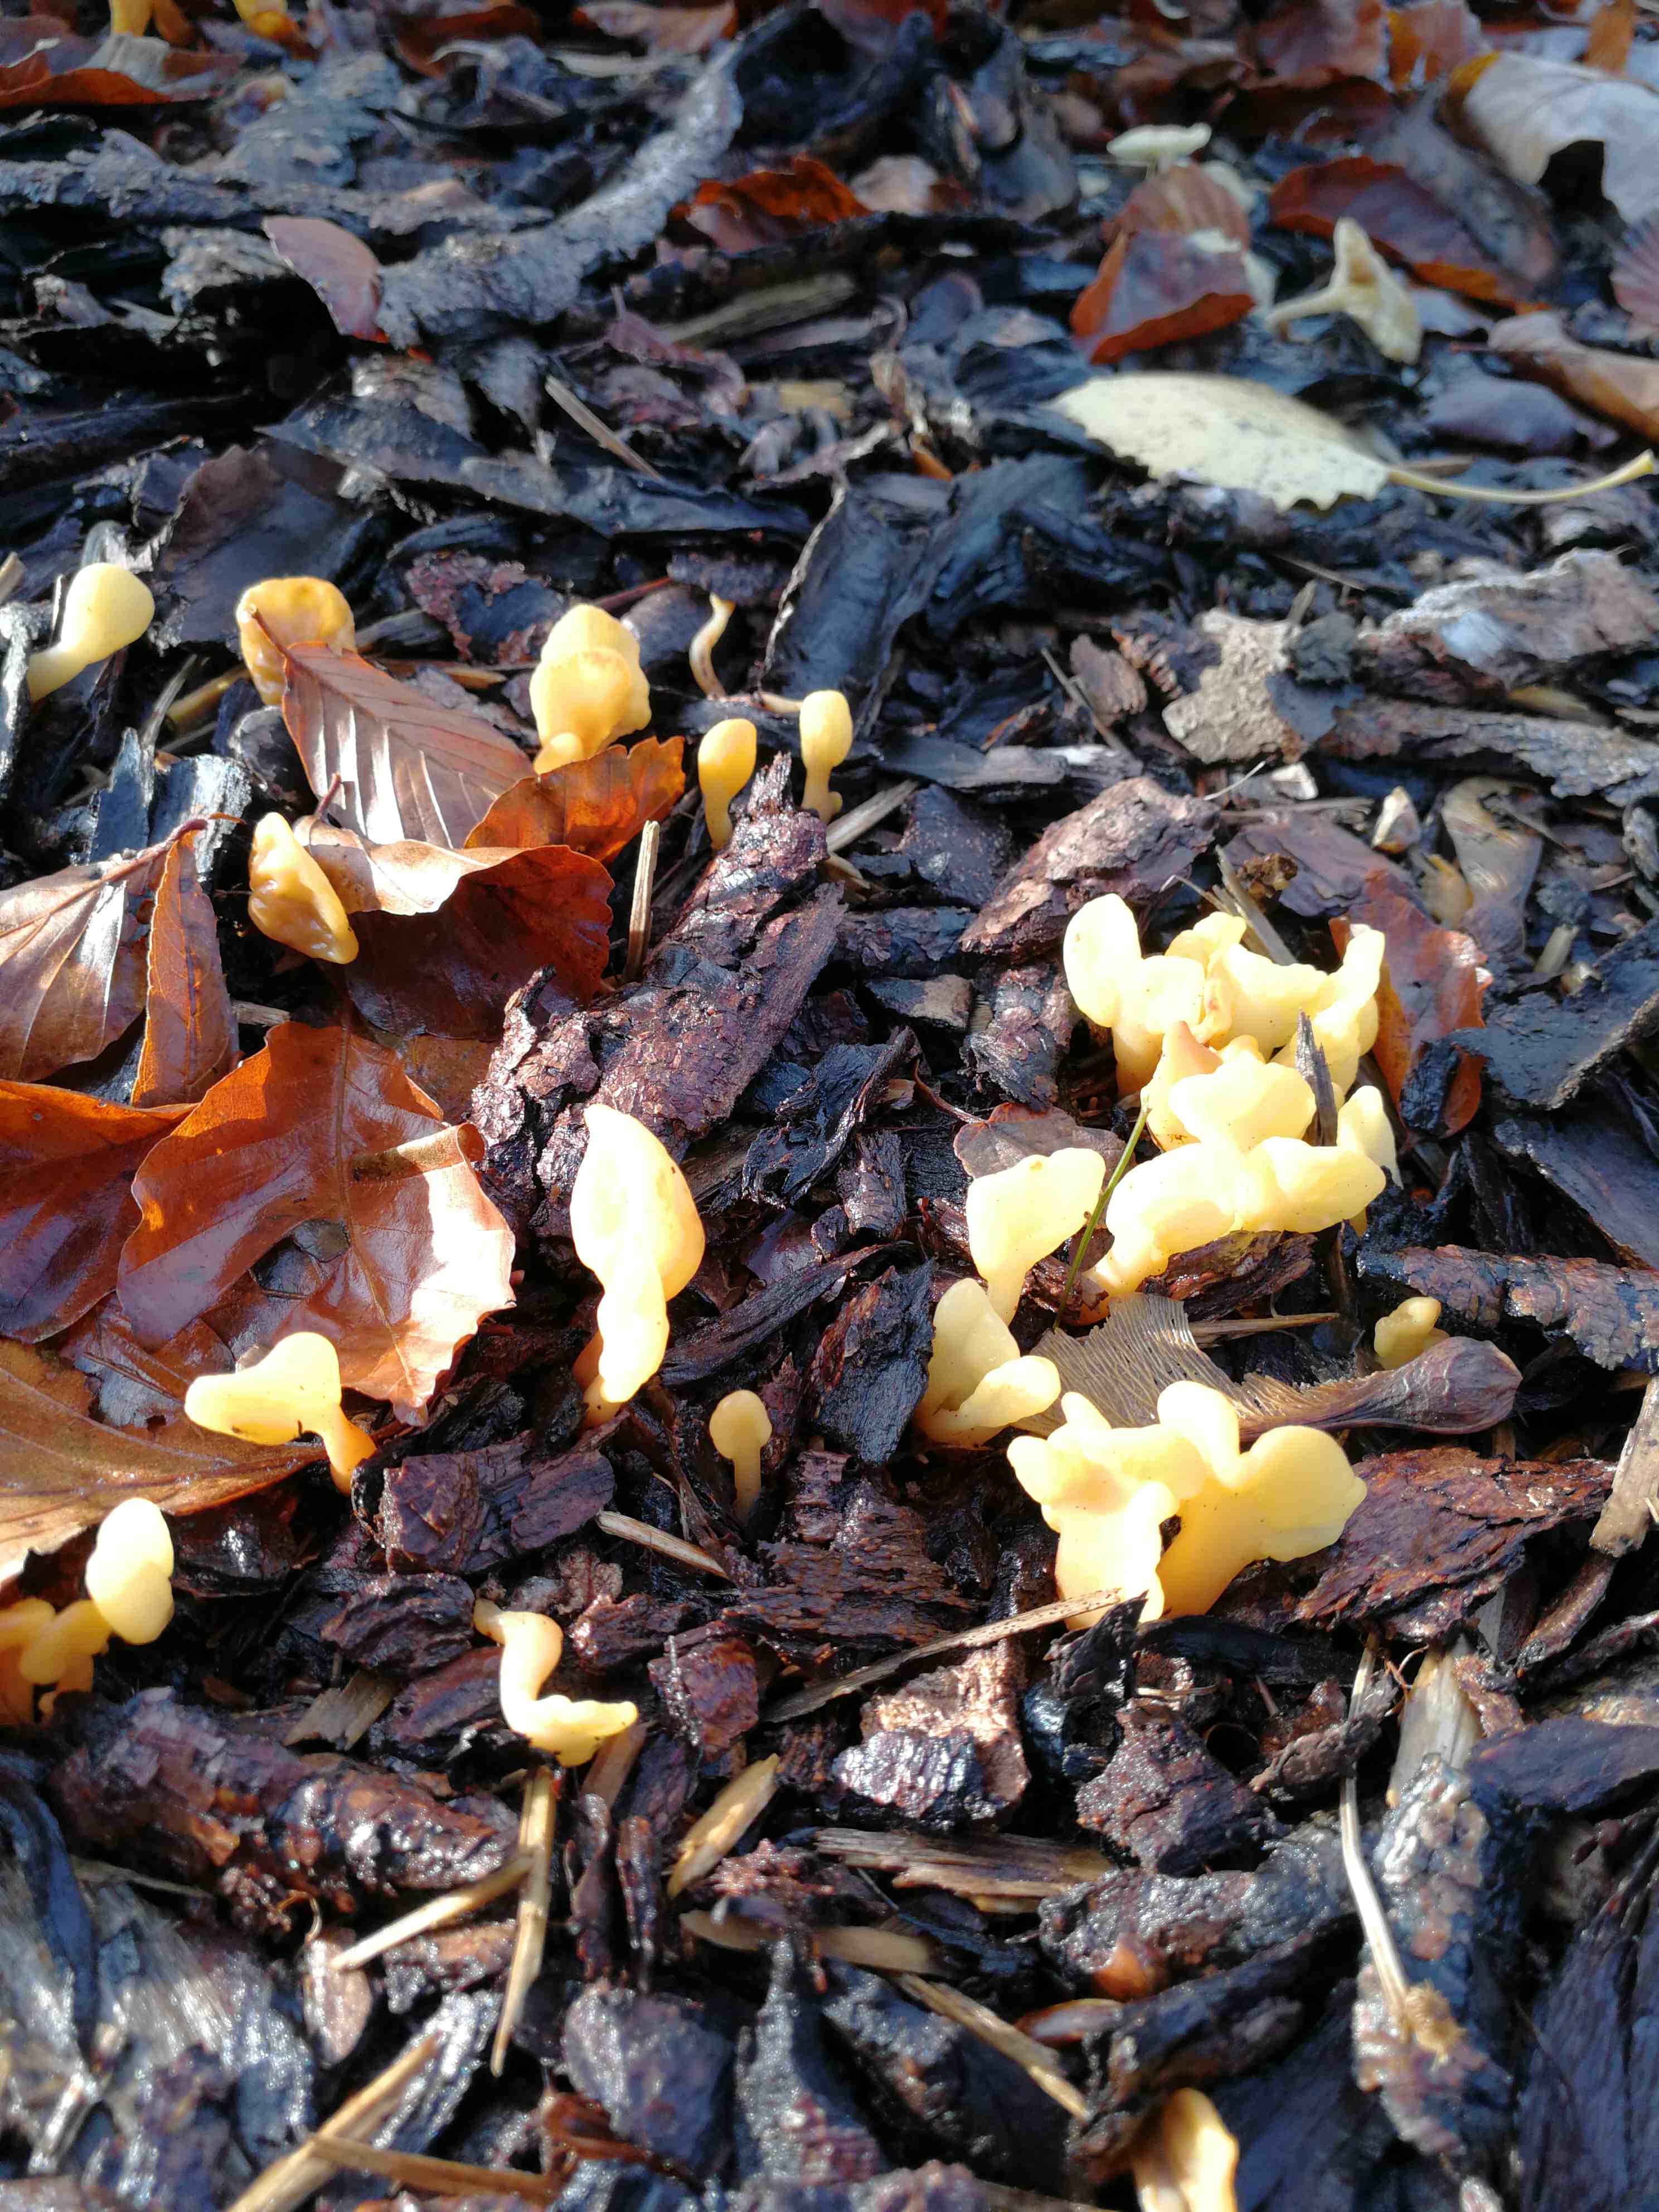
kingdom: Fungi
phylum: Ascomycota
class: Leotiomycetes
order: Rhytismatales
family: Cudoniaceae
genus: Spathularia
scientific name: Spathularia flavida
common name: gul spatelsvamp
